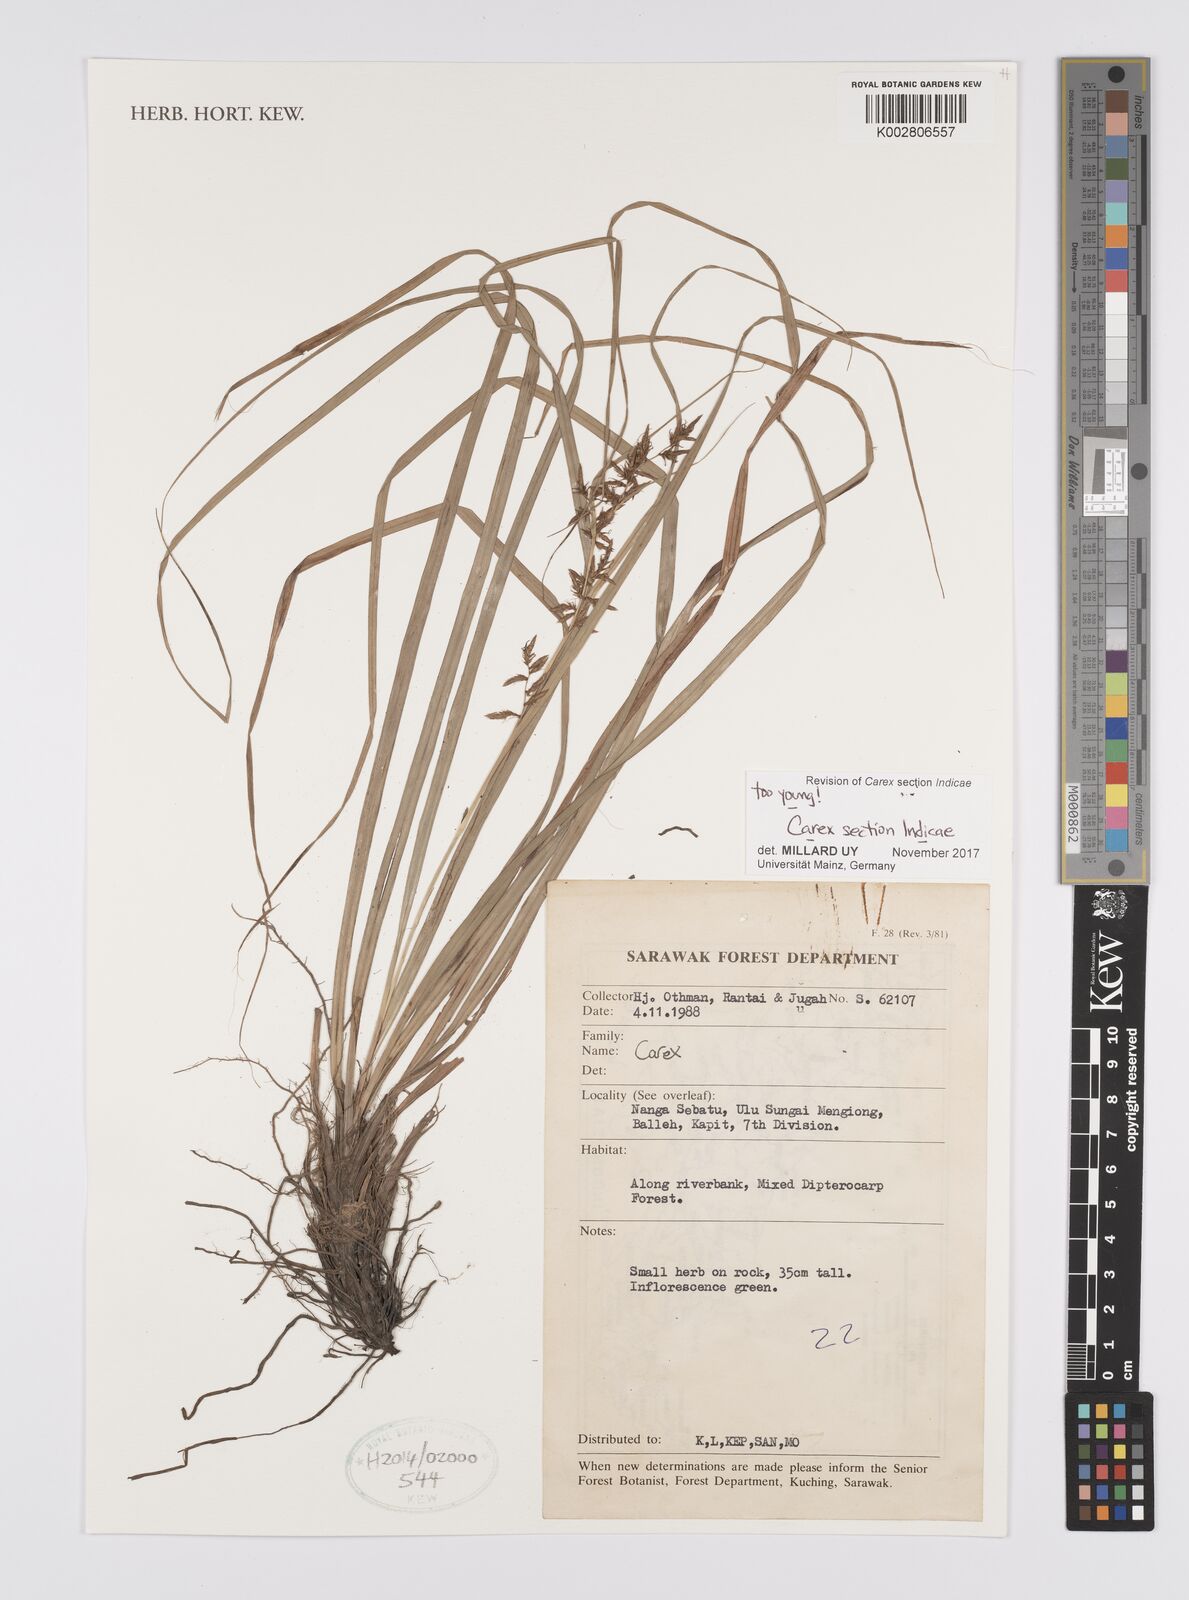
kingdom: Plantae
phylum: Tracheophyta
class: Liliopsida
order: Poales
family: Cyperaceae
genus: Carex
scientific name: Carex
